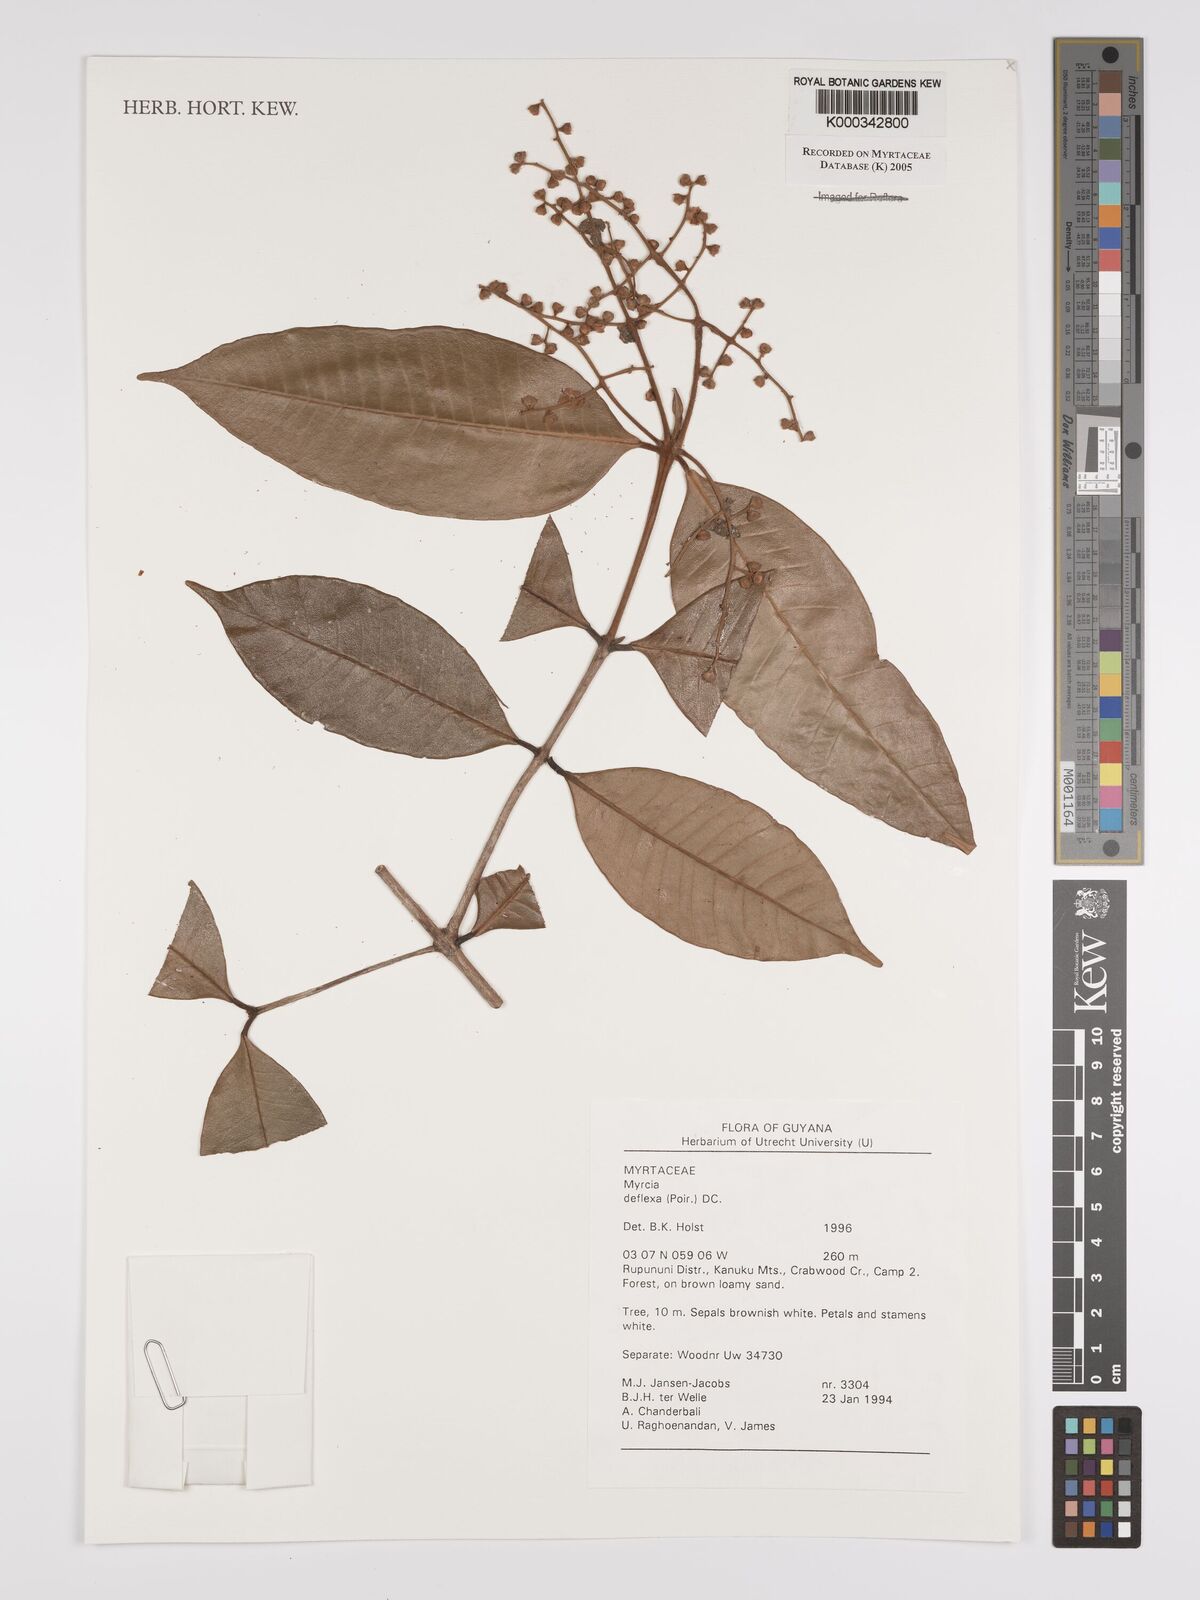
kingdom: Plantae
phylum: Tracheophyta
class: Magnoliopsida
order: Myrtales
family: Myrtaceae
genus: Myrcia
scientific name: Myrcia deflexa
